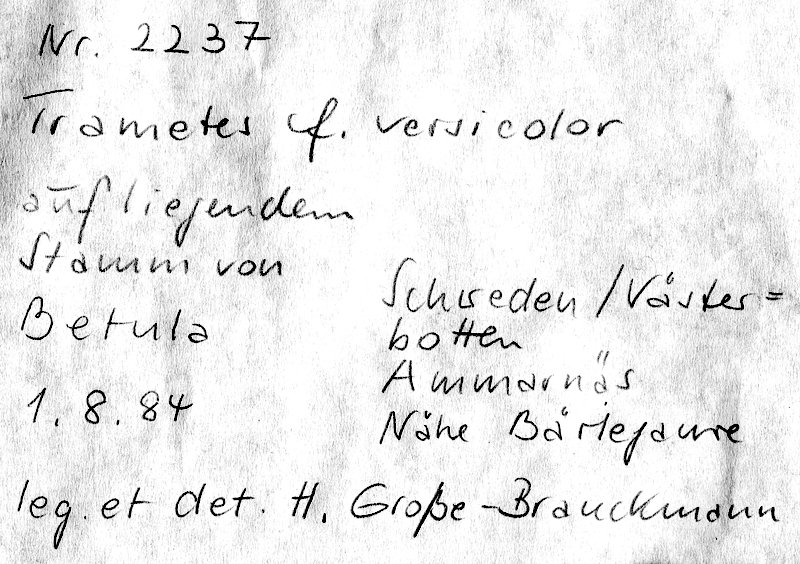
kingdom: Plantae
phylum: Tracheophyta
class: Magnoliopsida
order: Fagales
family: Betulaceae
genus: Betula
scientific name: Betula
